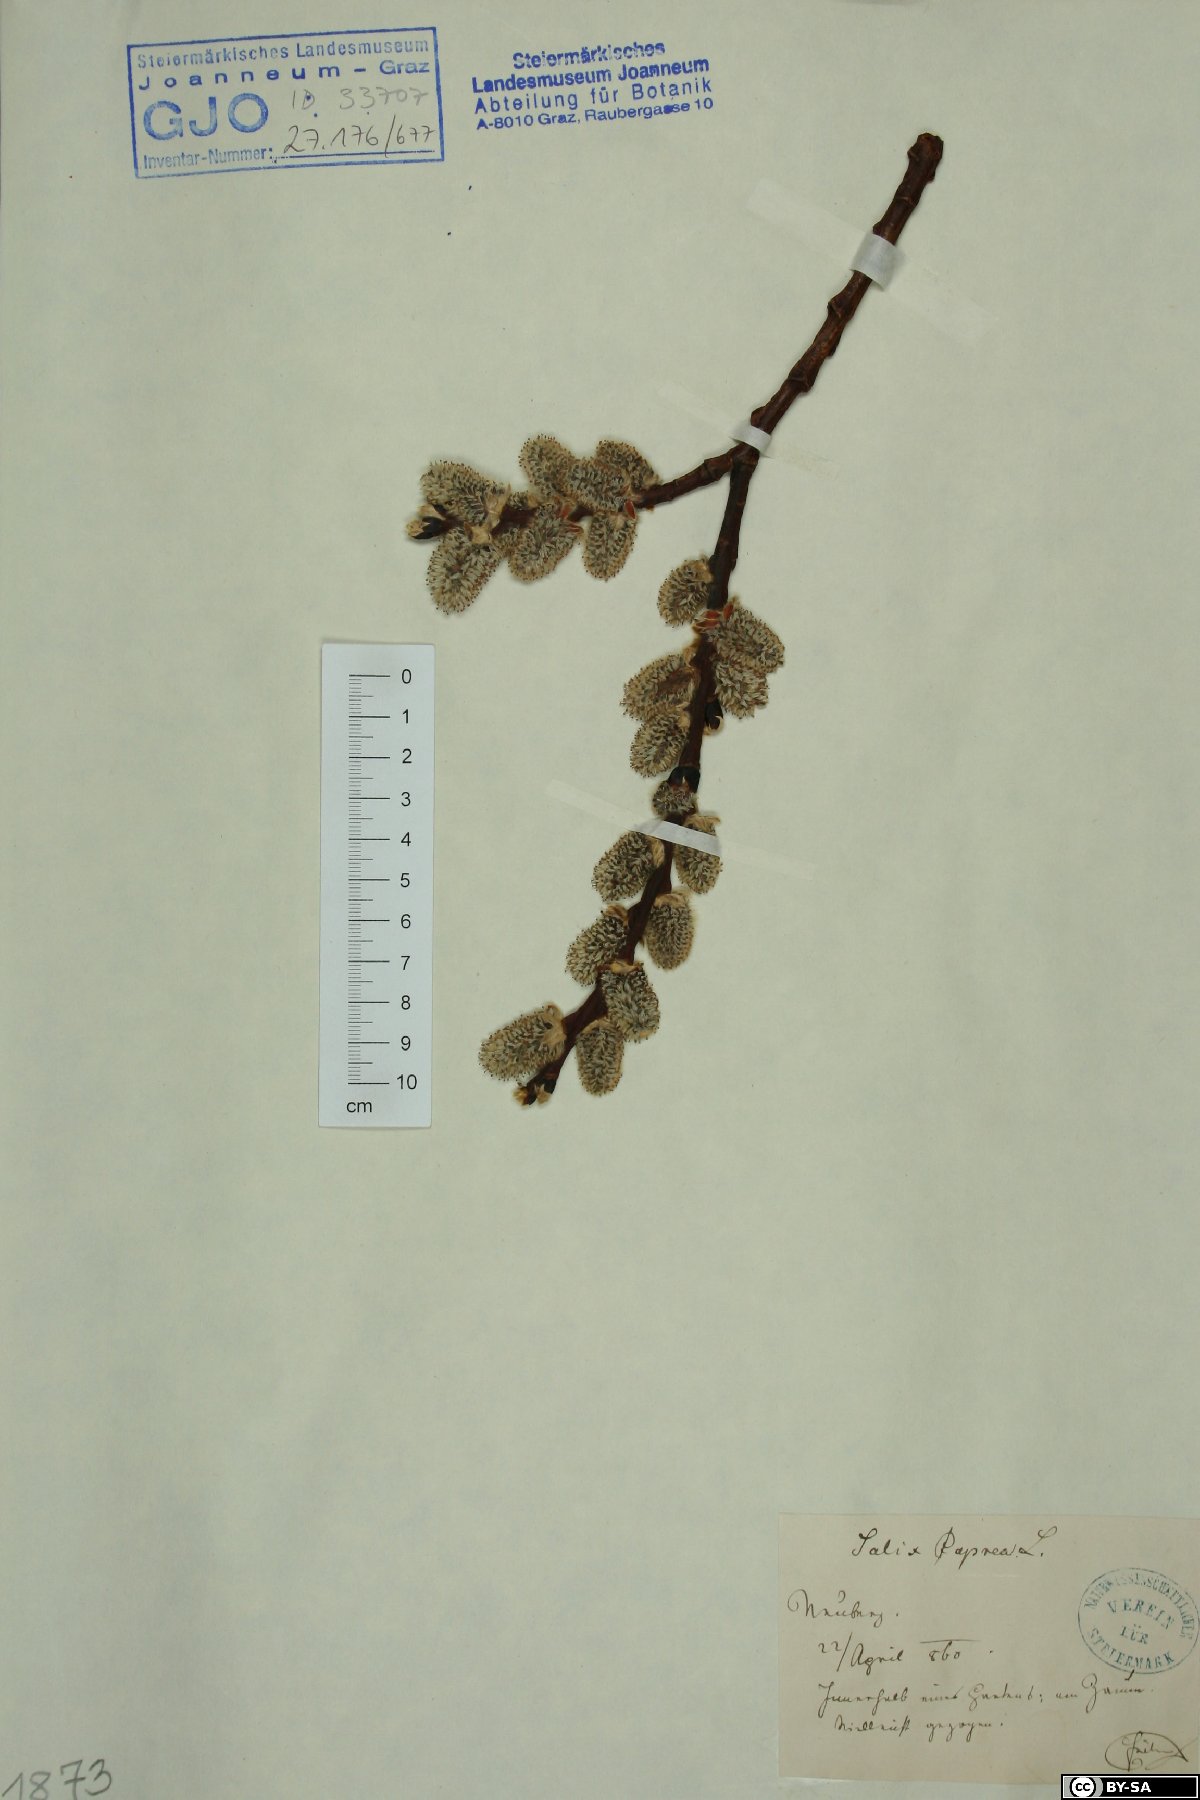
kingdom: Plantae
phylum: Tracheophyta
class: Magnoliopsida
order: Malpighiales
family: Salicaceae
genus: Salix
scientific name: Salix caprea
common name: Goat willow
